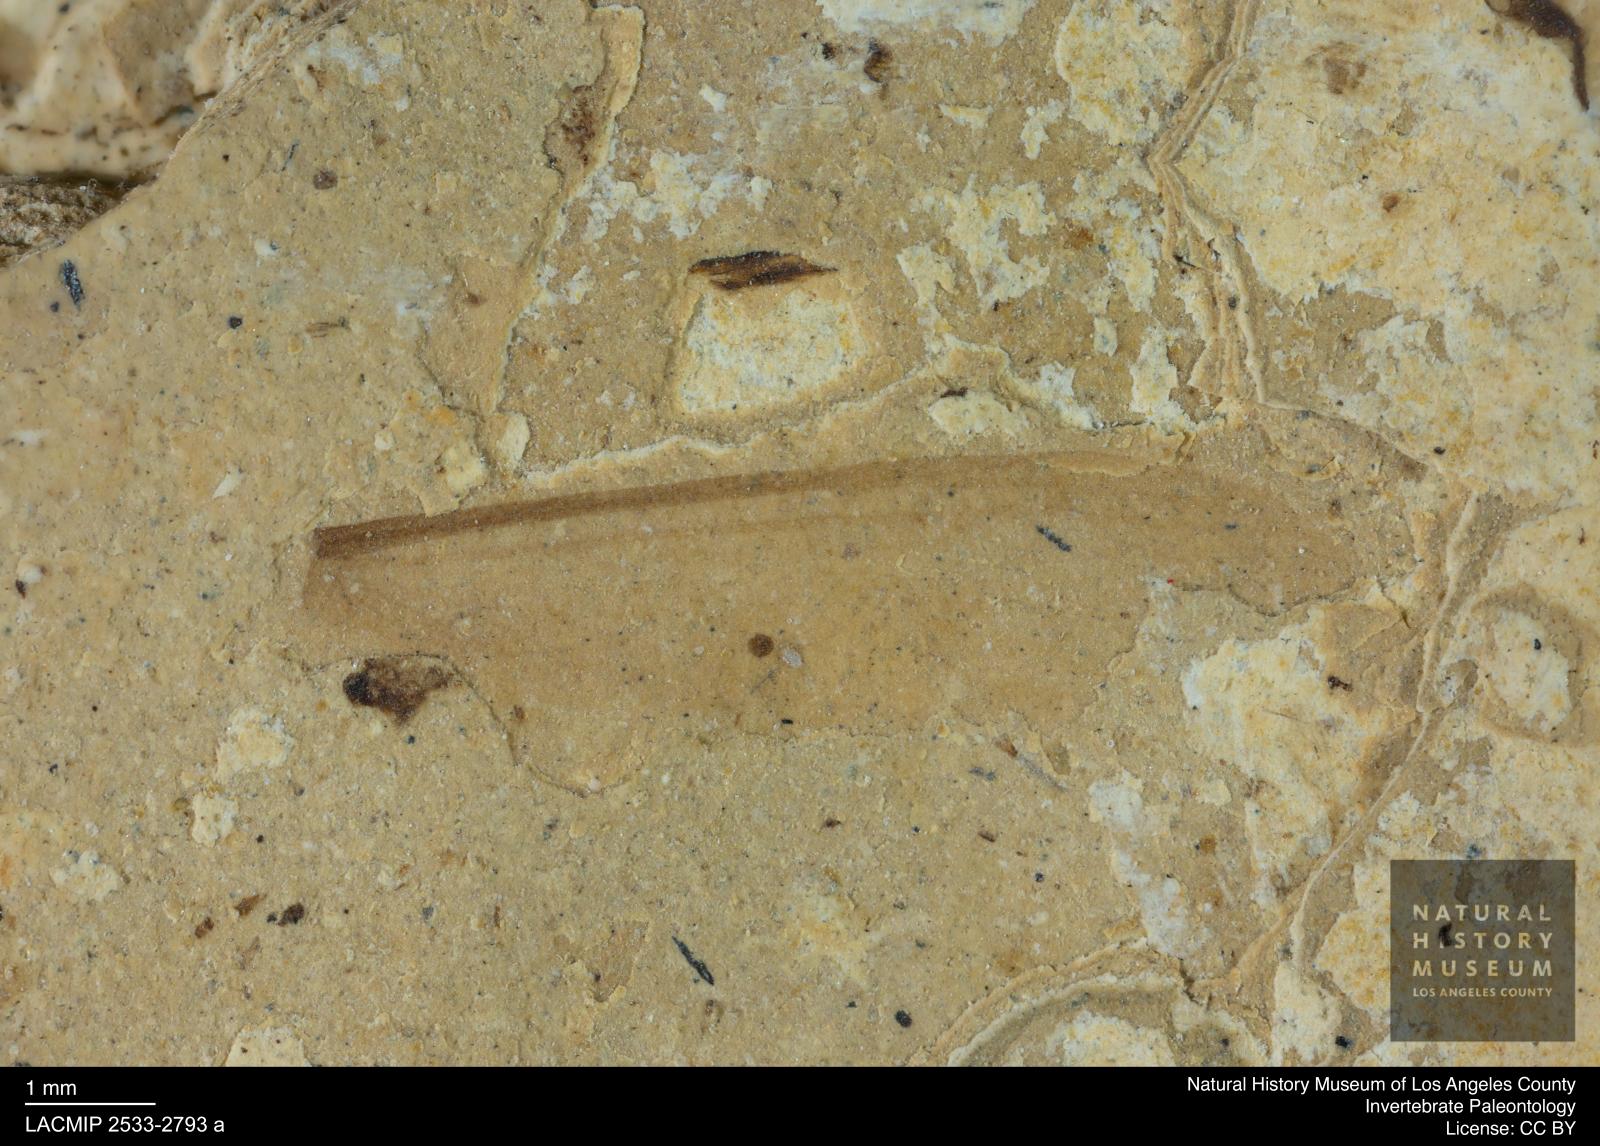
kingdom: Animalia
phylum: Arthropoda
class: Insecta
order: Blattodea
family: Kalotermitidae
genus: Kalotermes
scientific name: Kalotermes rhenanus
